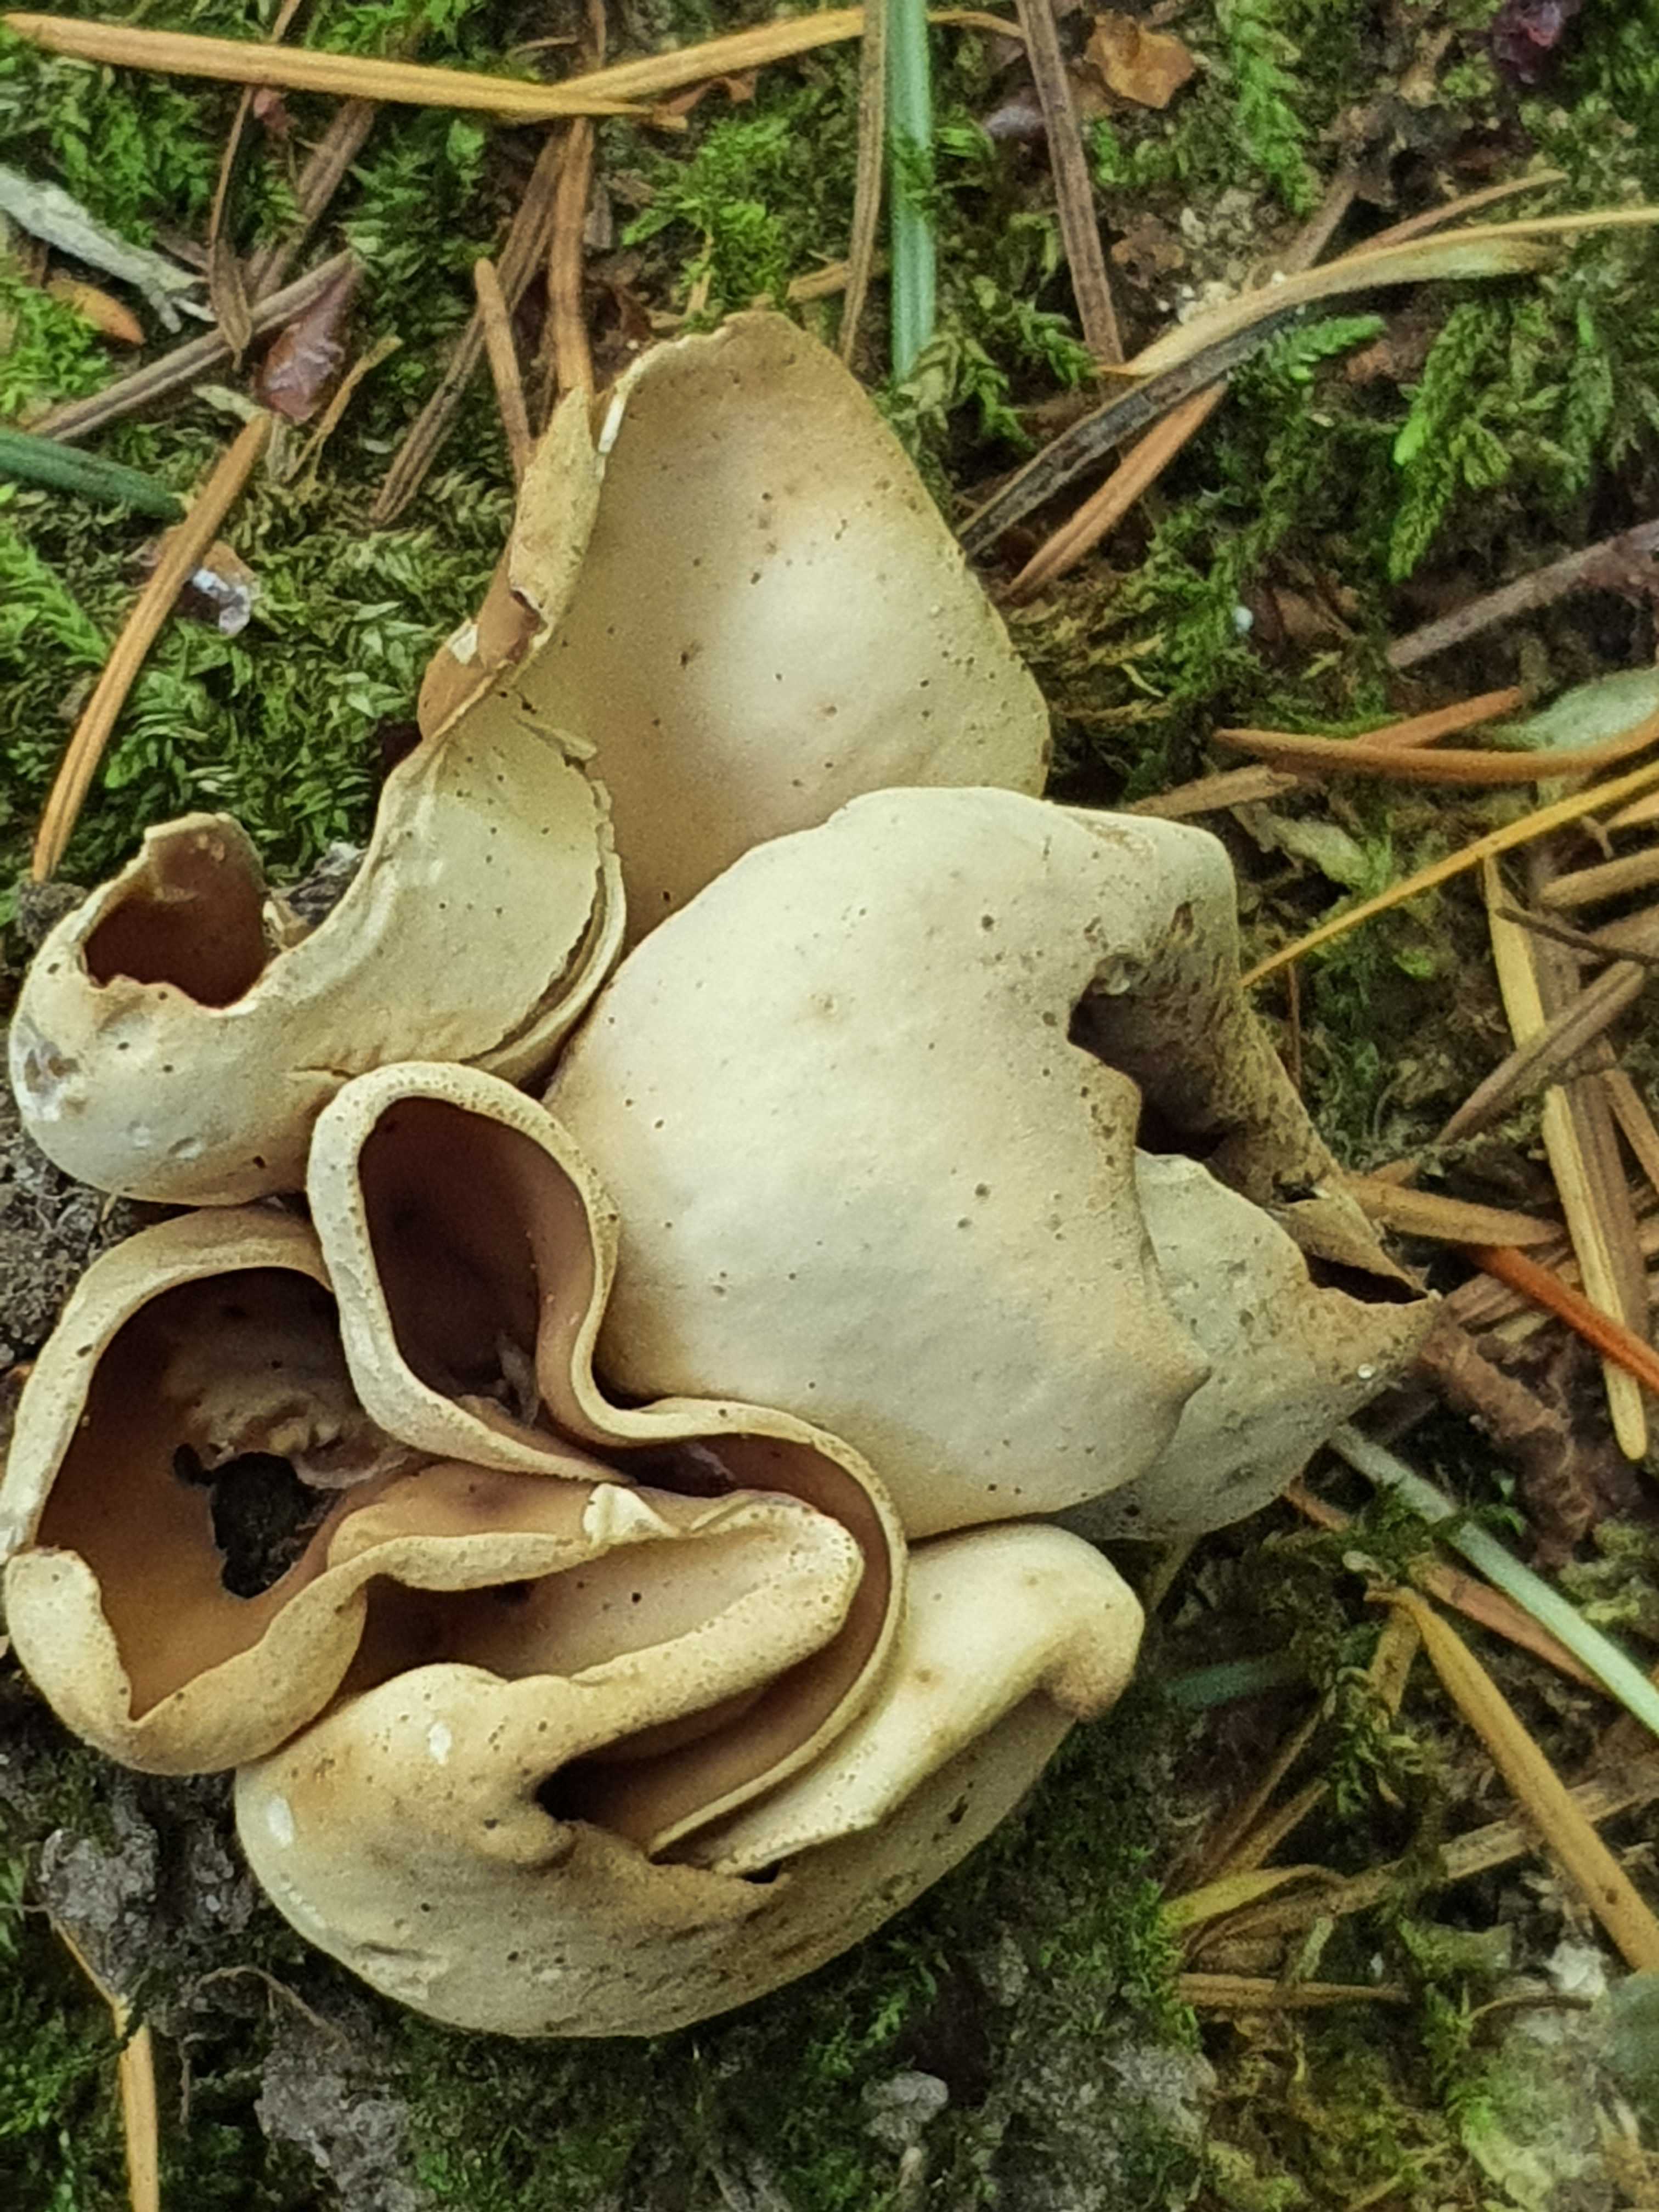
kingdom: Fungi
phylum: Ascomycota
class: Pezizomycetes
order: Pezizales
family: Otideaceae
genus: Otidea
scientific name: Otidea alutacea
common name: læder-ørebæger
